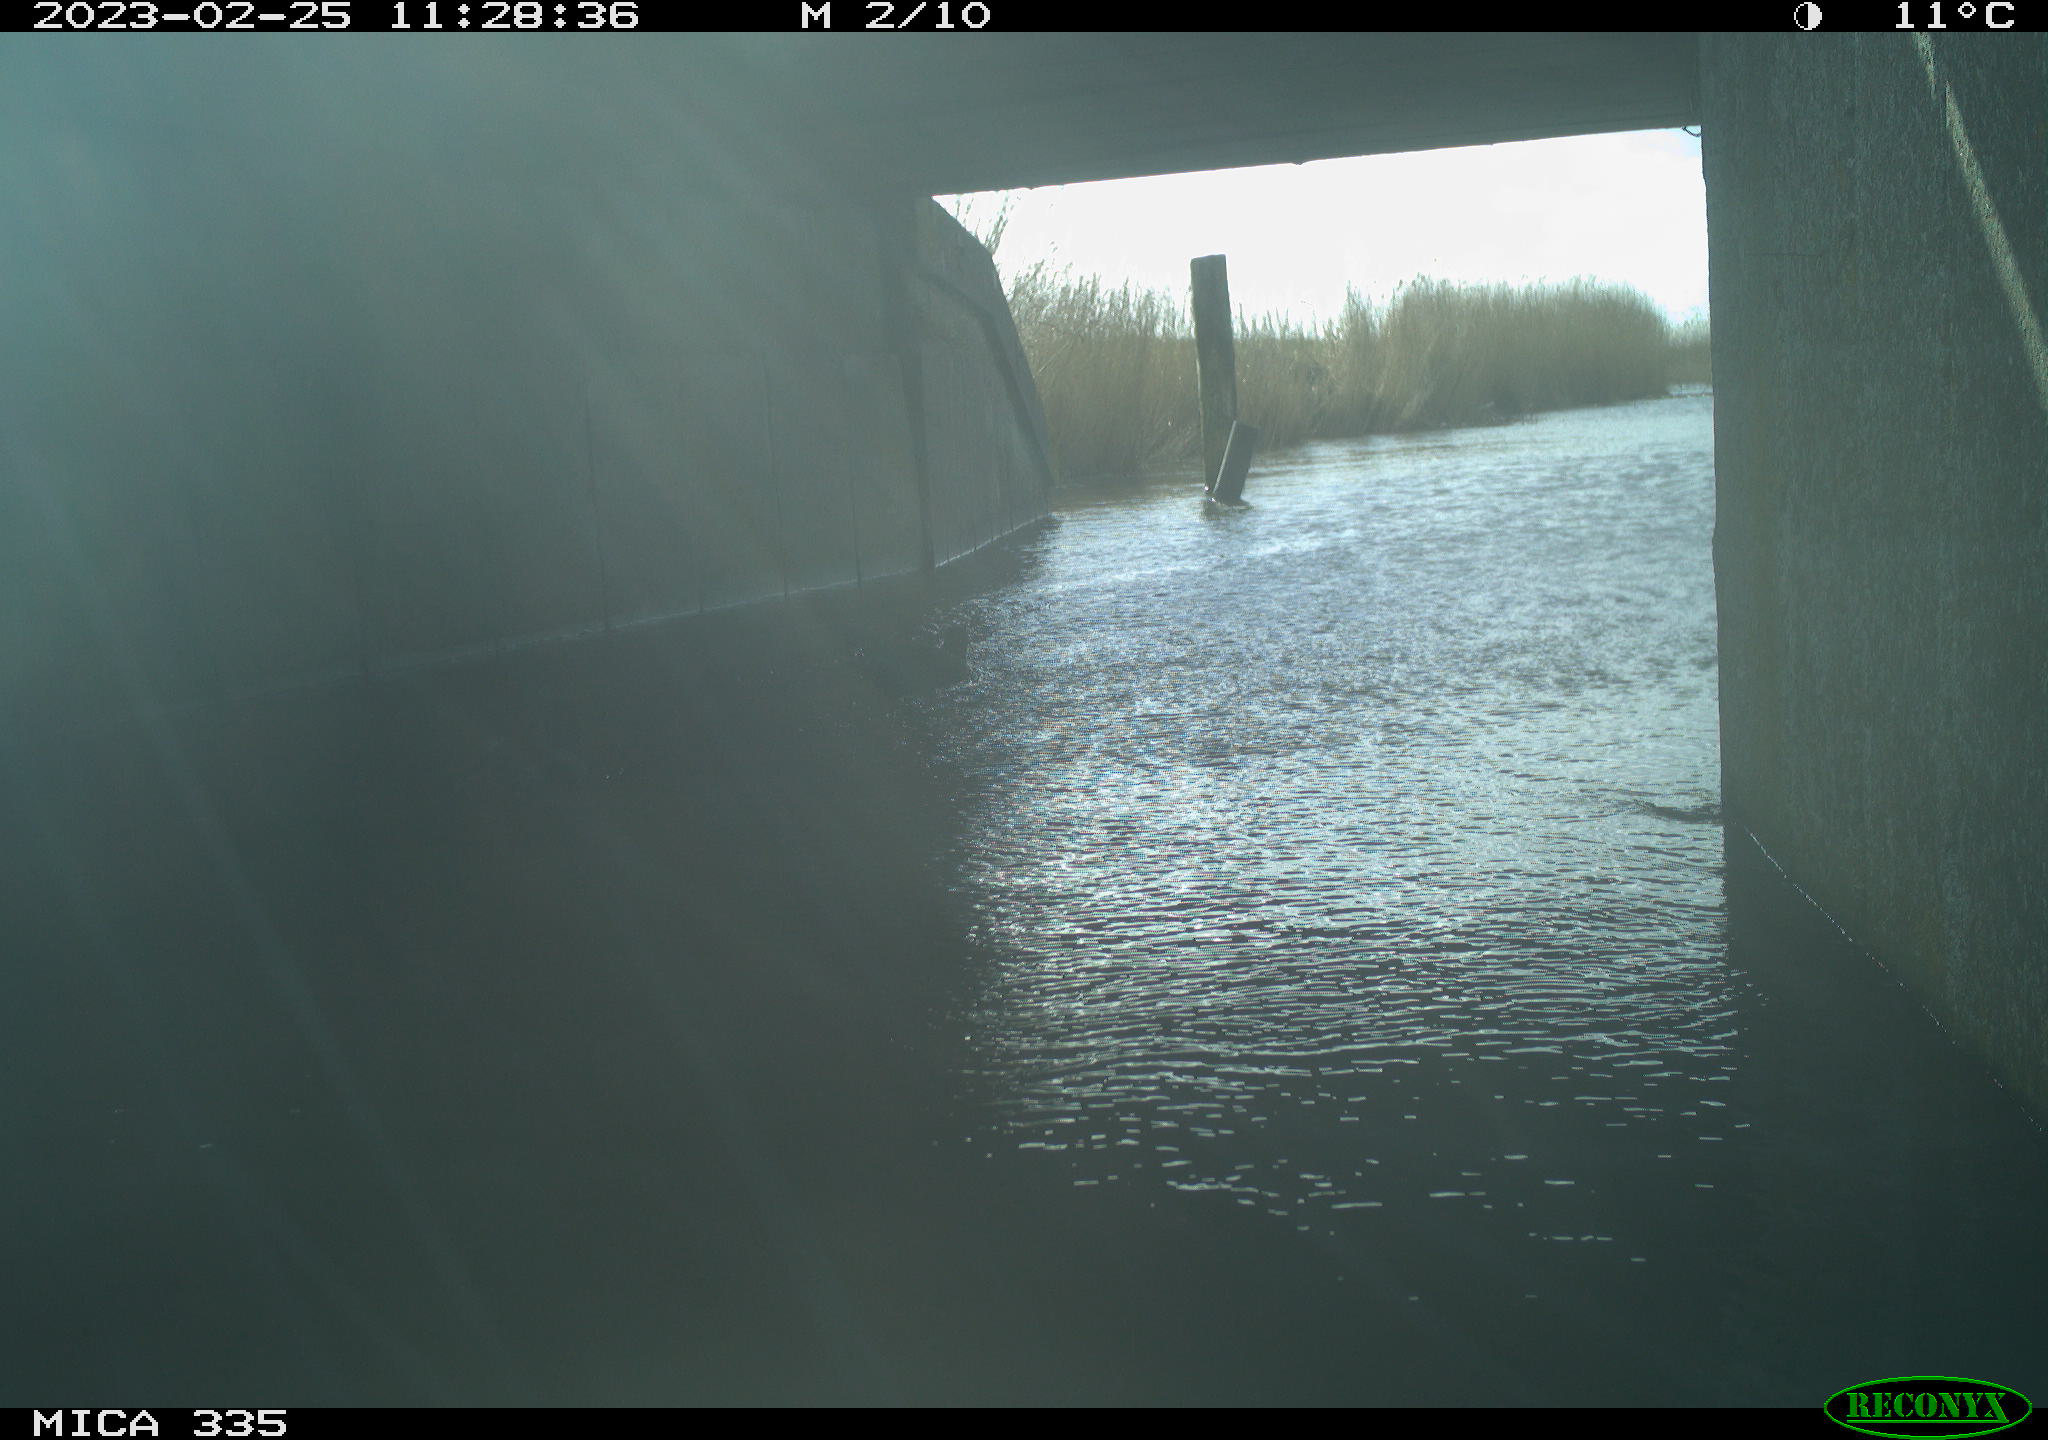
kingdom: Animalia
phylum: Chordata
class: Aves
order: Gruiformes
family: Rallidae
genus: Fulica
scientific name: Fulica atra
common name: Eurasian coot
